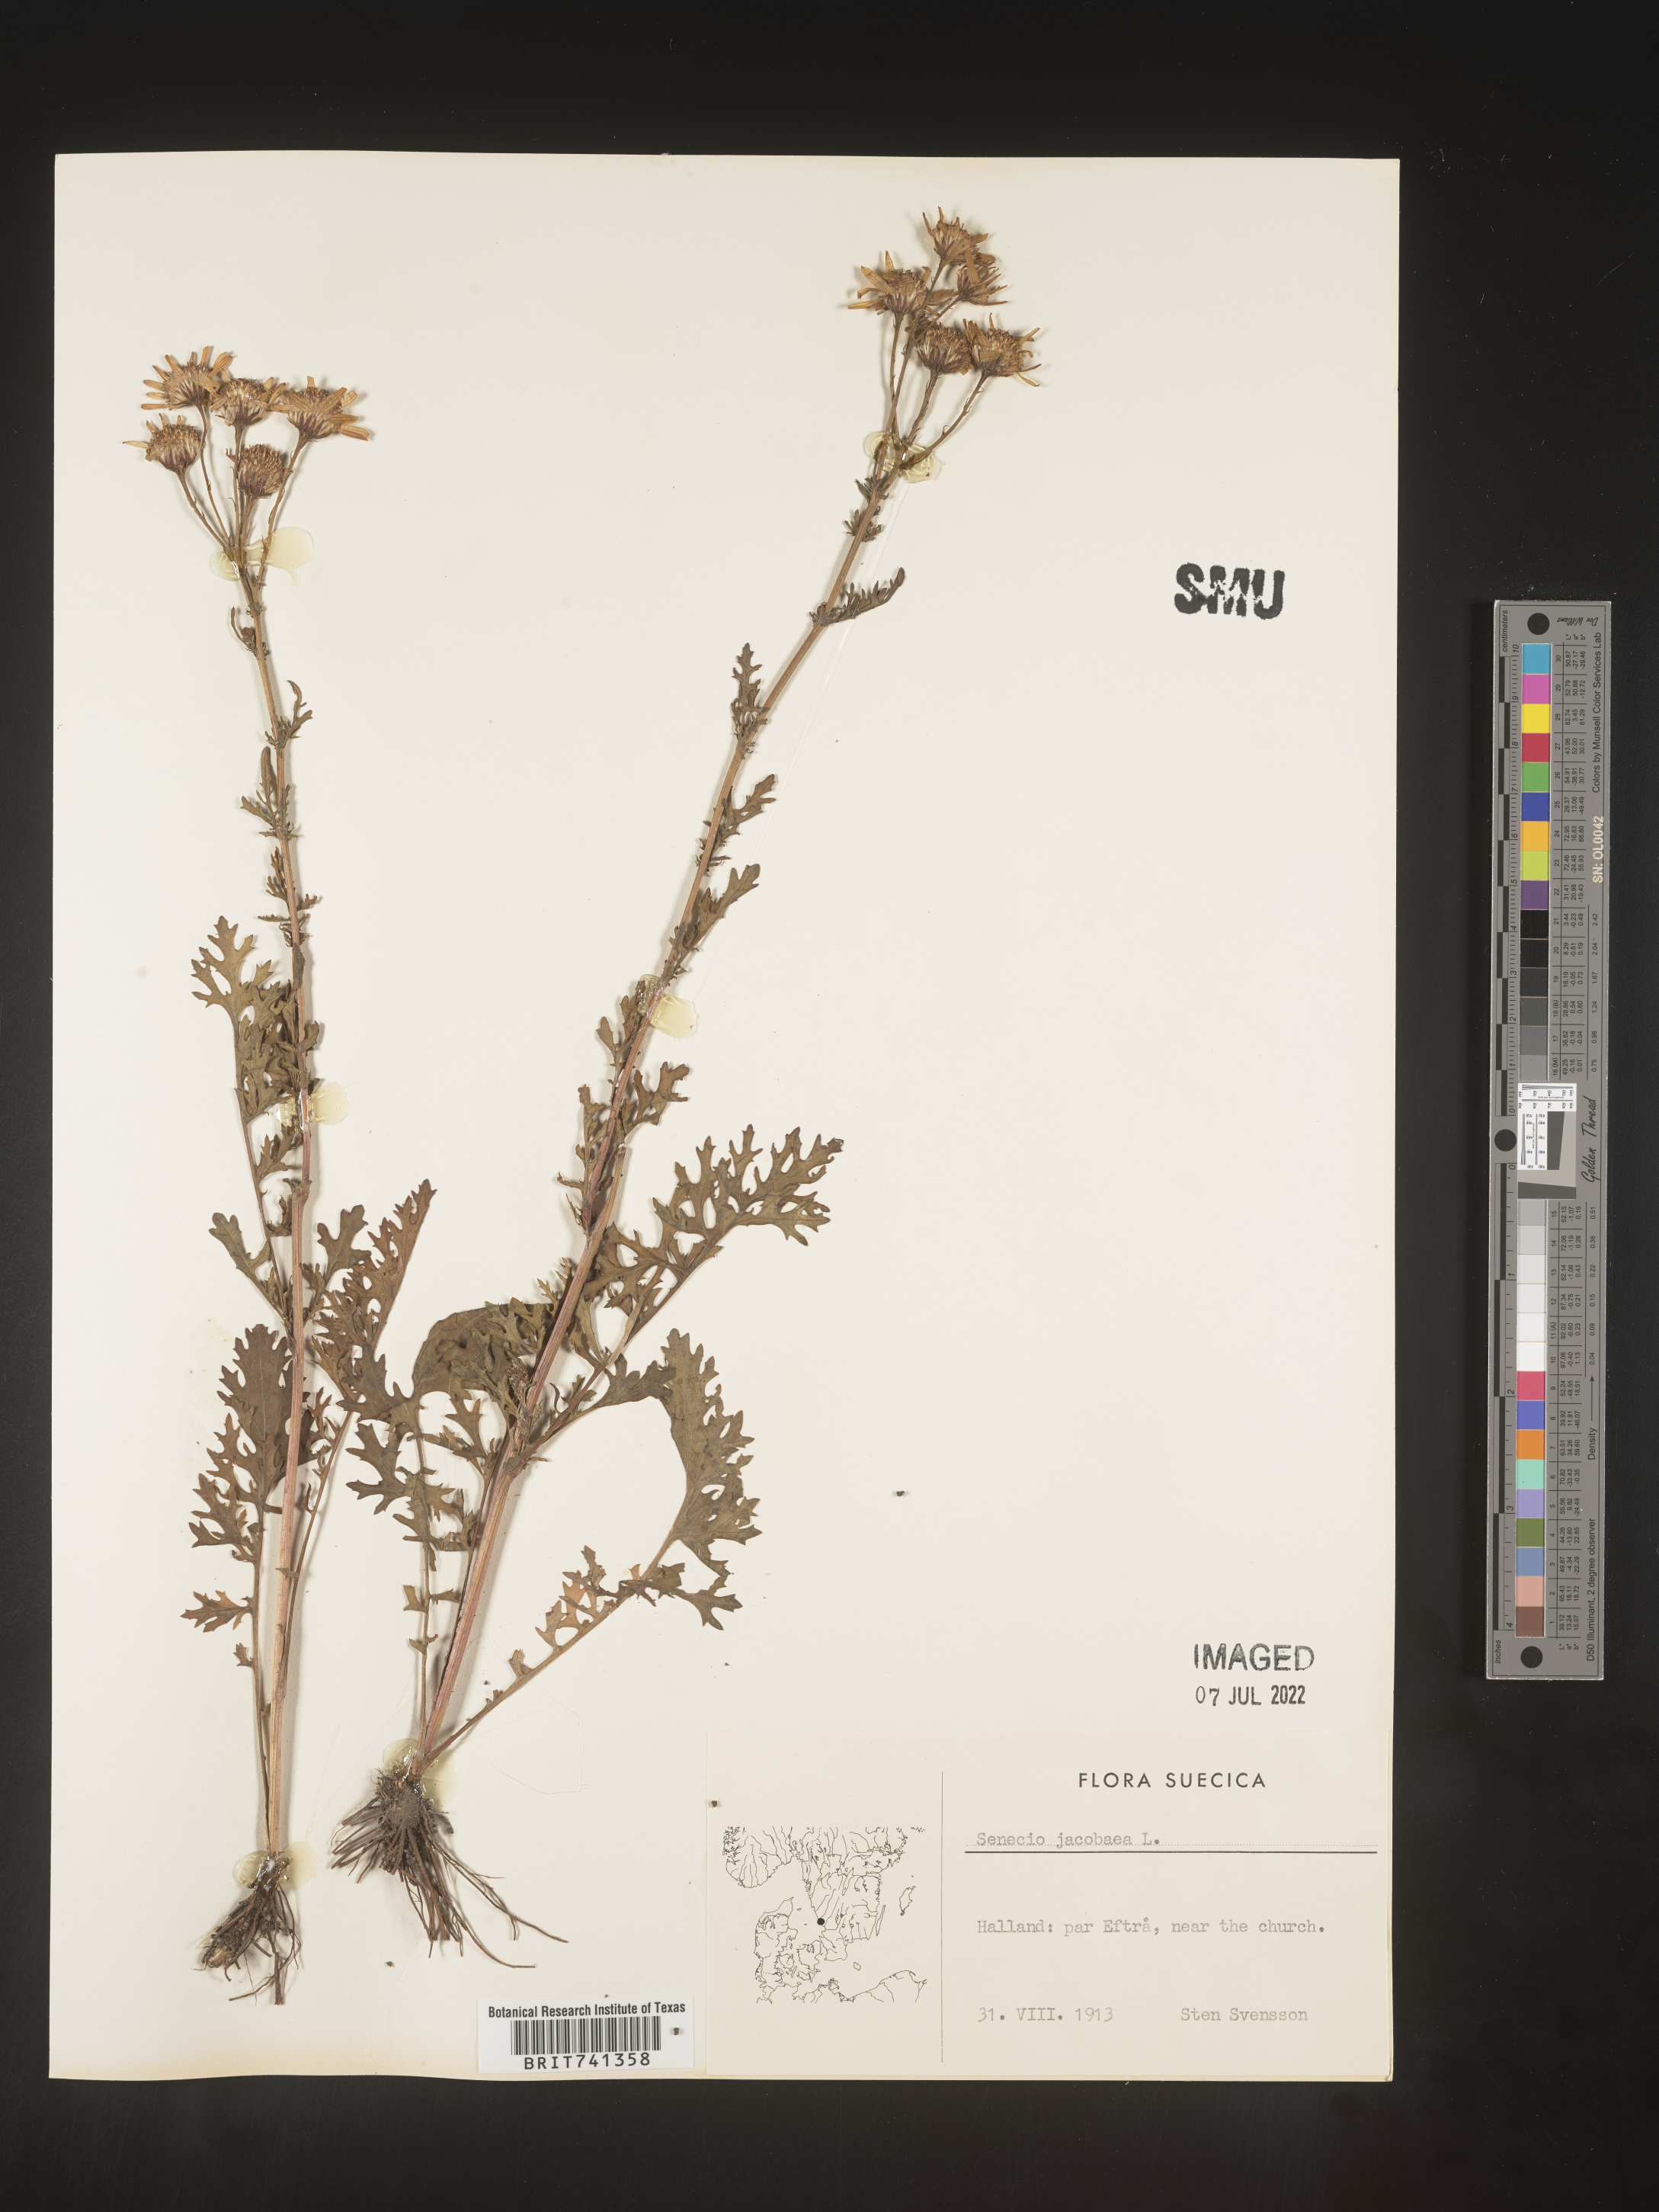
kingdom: Plantae
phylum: Tracheophyta
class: Magnoliopsida
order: Asterales
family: Asteraceae
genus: Senecio
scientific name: Senecio
